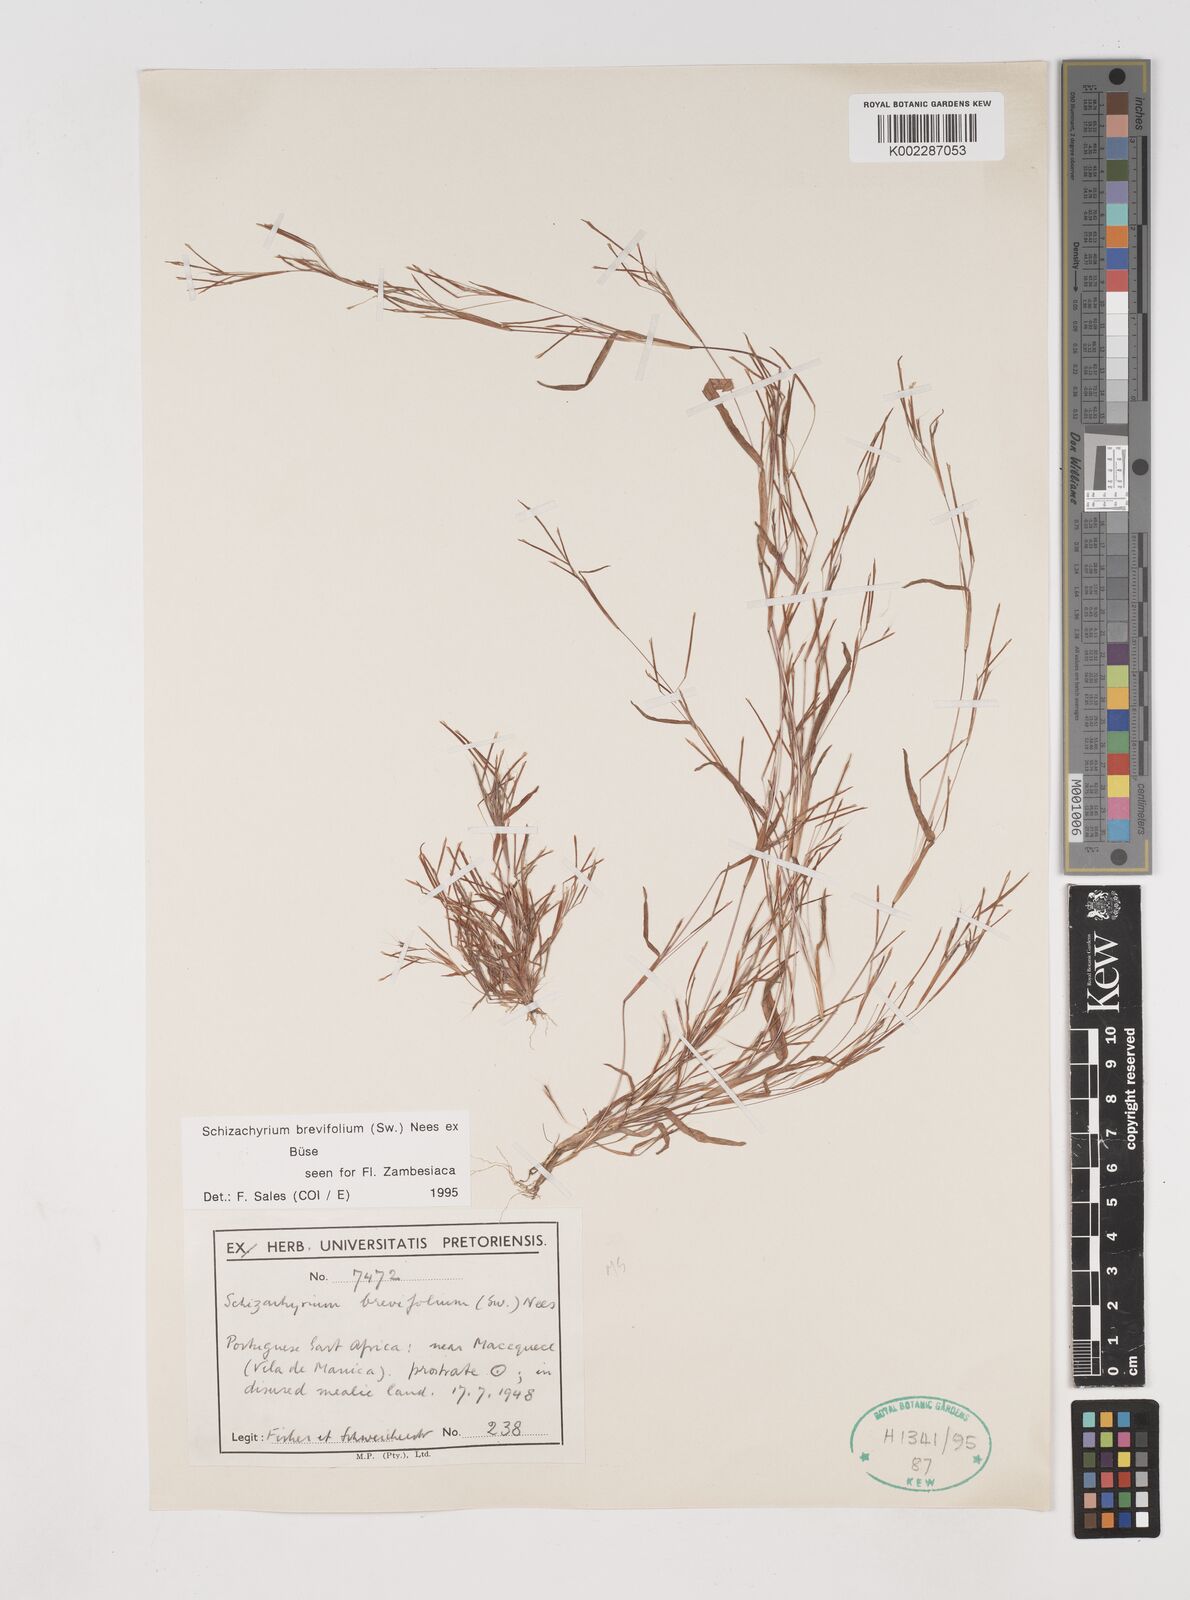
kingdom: Plantae
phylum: Tracheophyta
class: Liliopsida
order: Poales
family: Poaceae
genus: Schizachyrium
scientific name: Schizachyrium brevifolium
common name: Serillo dulce
